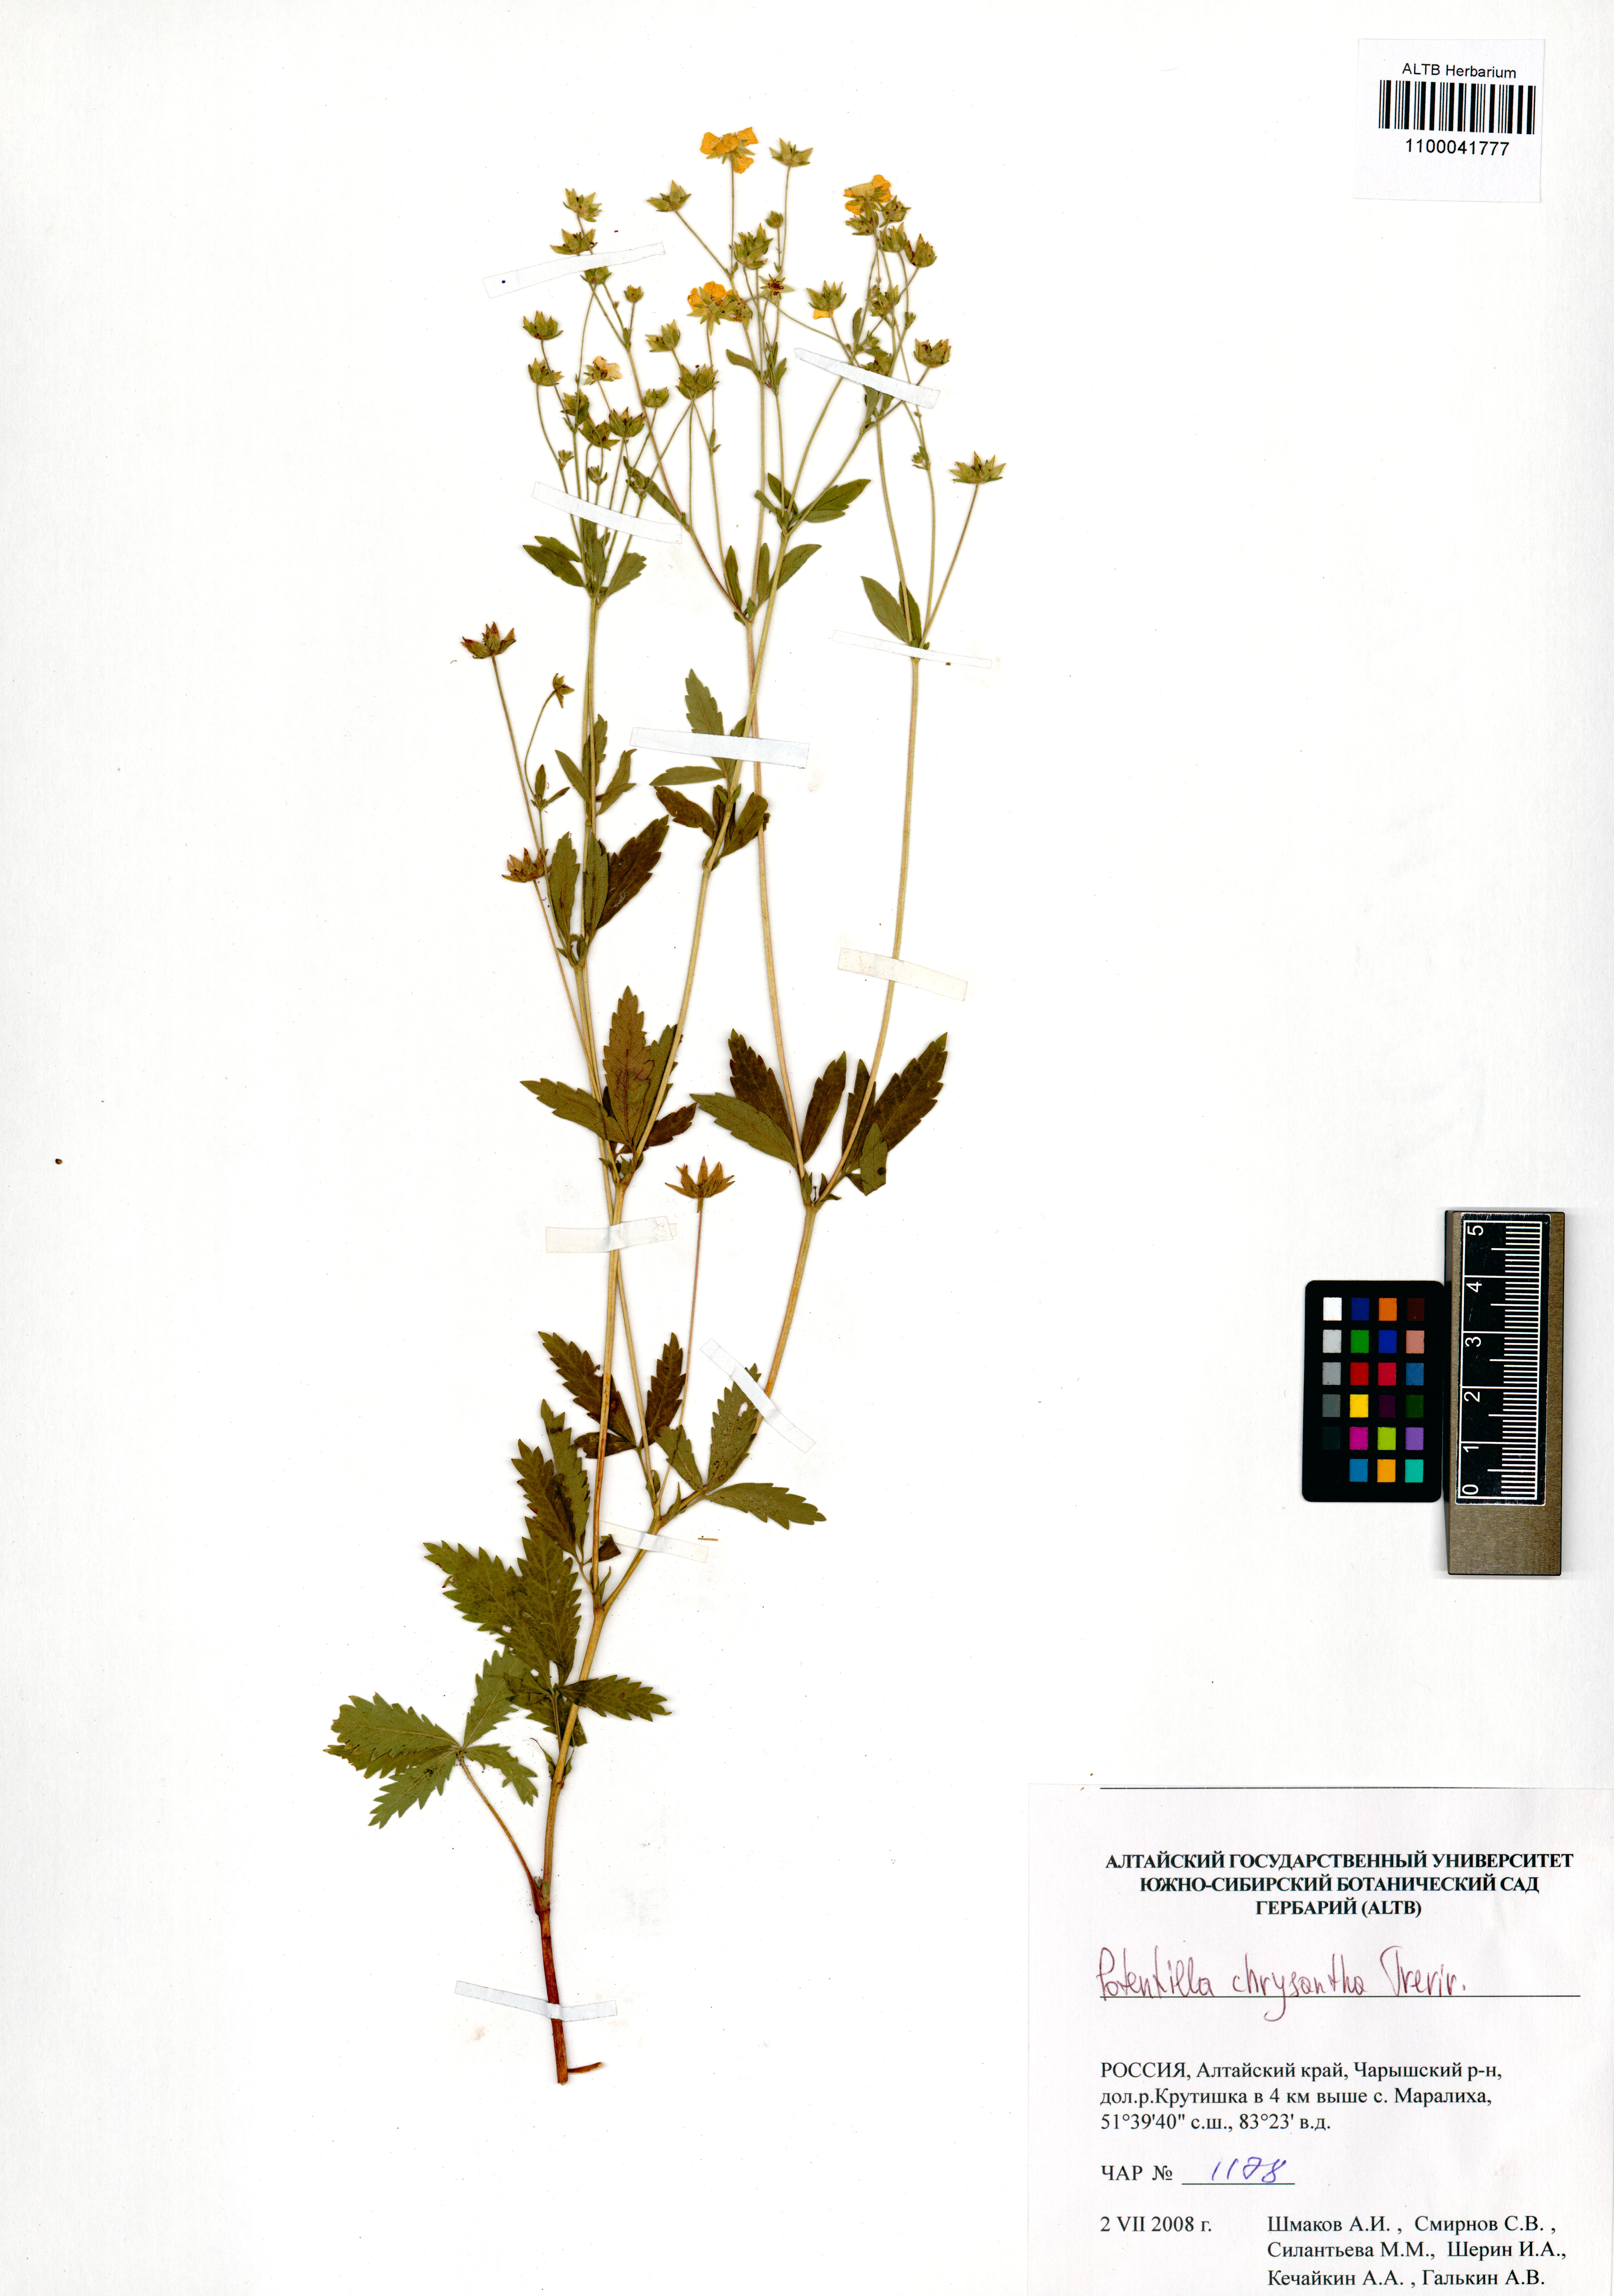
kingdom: Plantae
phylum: Tracheophyta
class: Magnoliopsida
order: Rosales
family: Rosaceae
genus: Potentilla
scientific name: Potentilla chrysantha
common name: Thuringian cinquefoil
